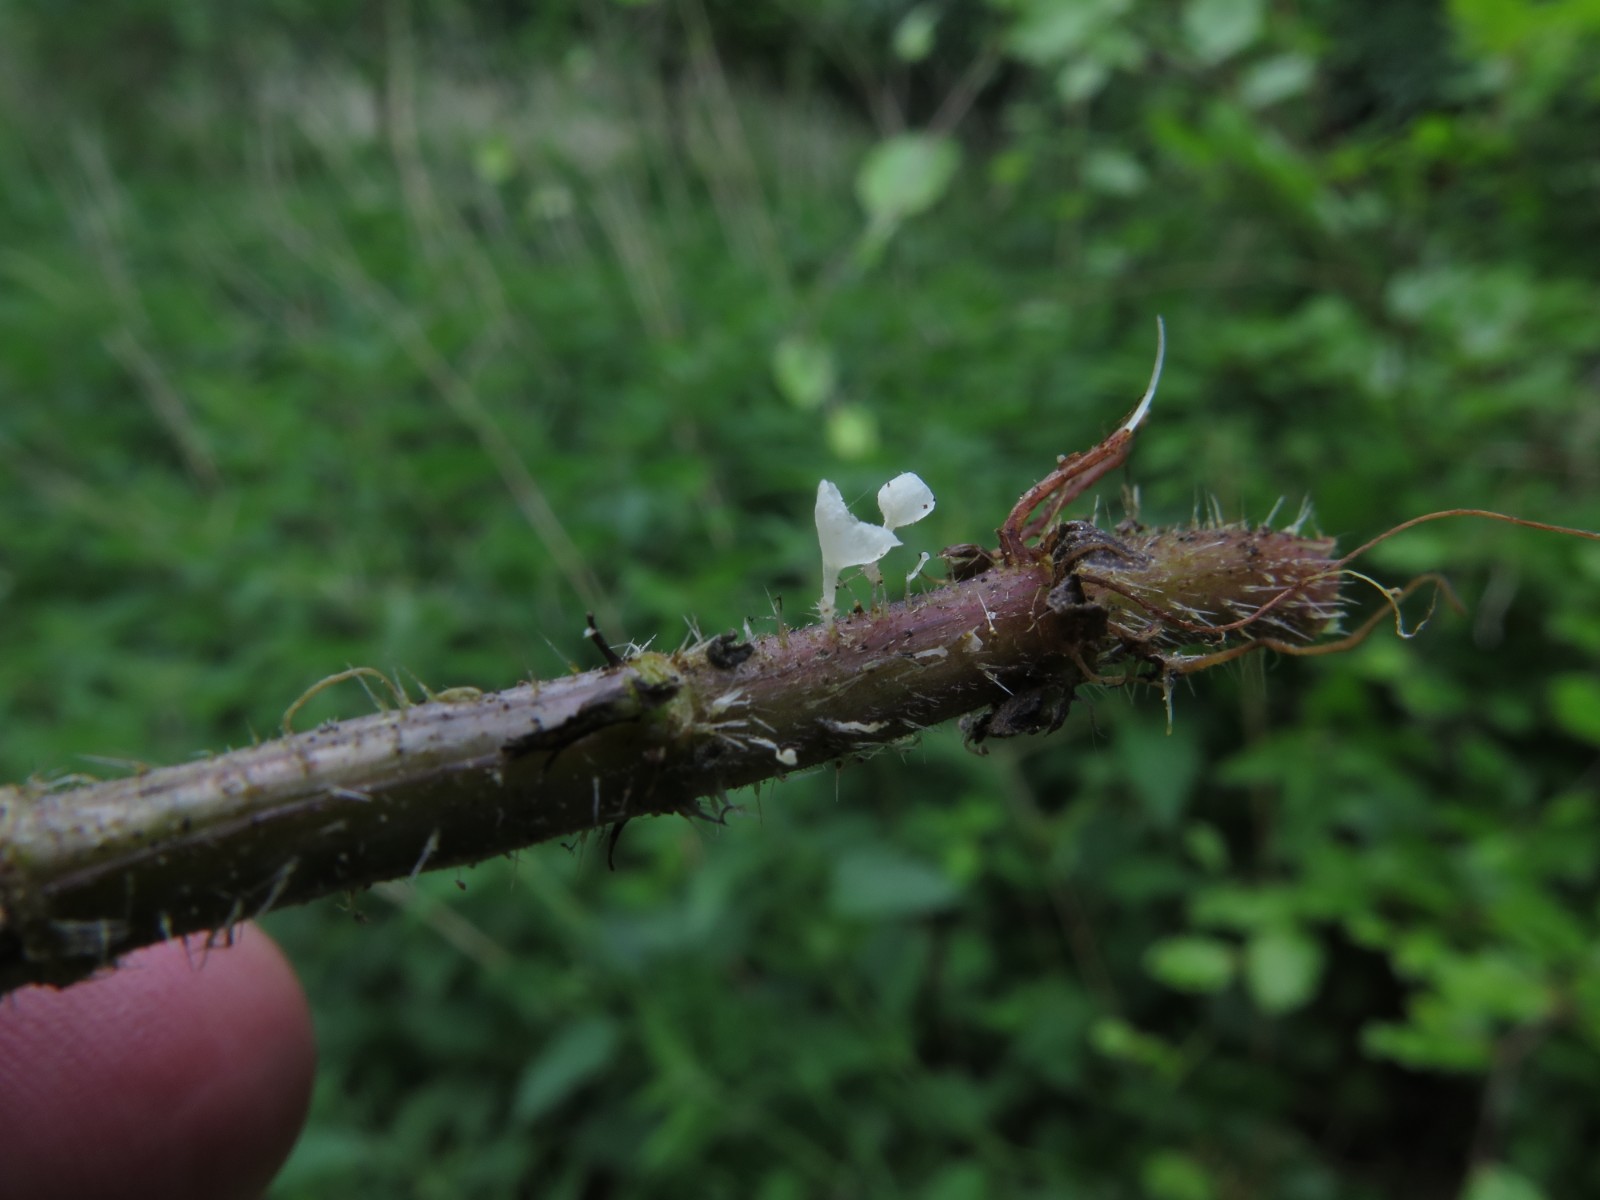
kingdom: Fungi
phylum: Basidiomycota
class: Agaricomycetes
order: Agaricales
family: Marasmiaceae
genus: Calyptella
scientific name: Calyptella capula
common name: hvidlig nældehue
